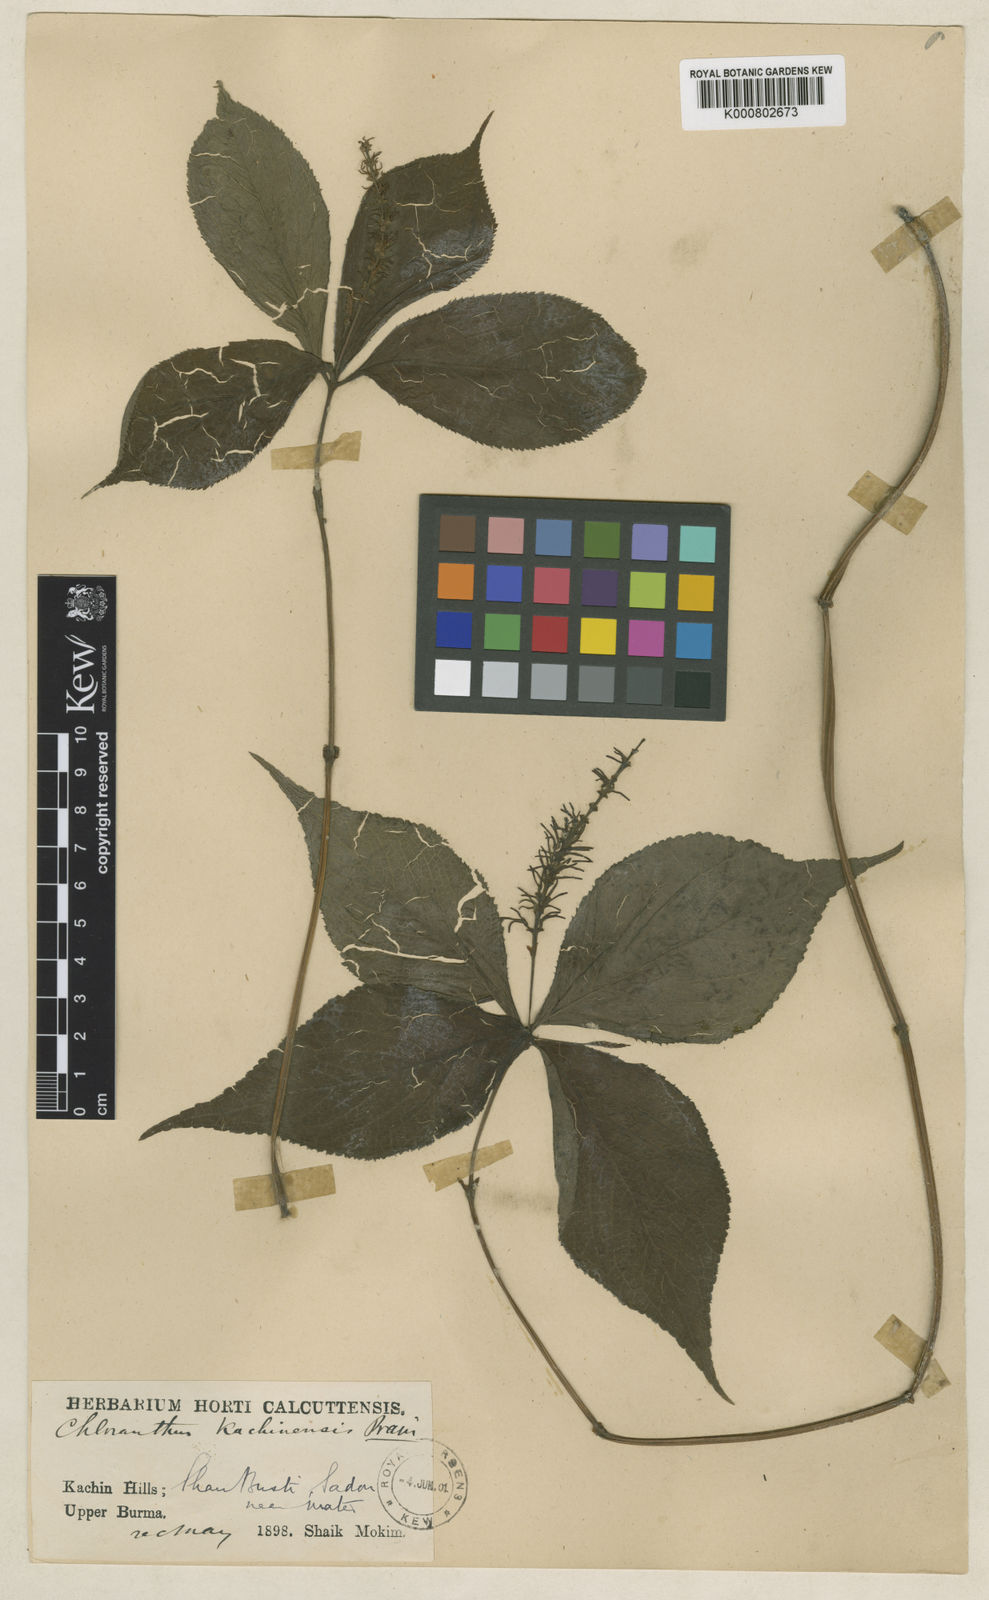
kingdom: Plantae
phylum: Tracheophyta
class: Magnoliopsida
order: Chloranthales
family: Chloranthaceae
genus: Chloranthus
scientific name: Chloranthus nervosus
